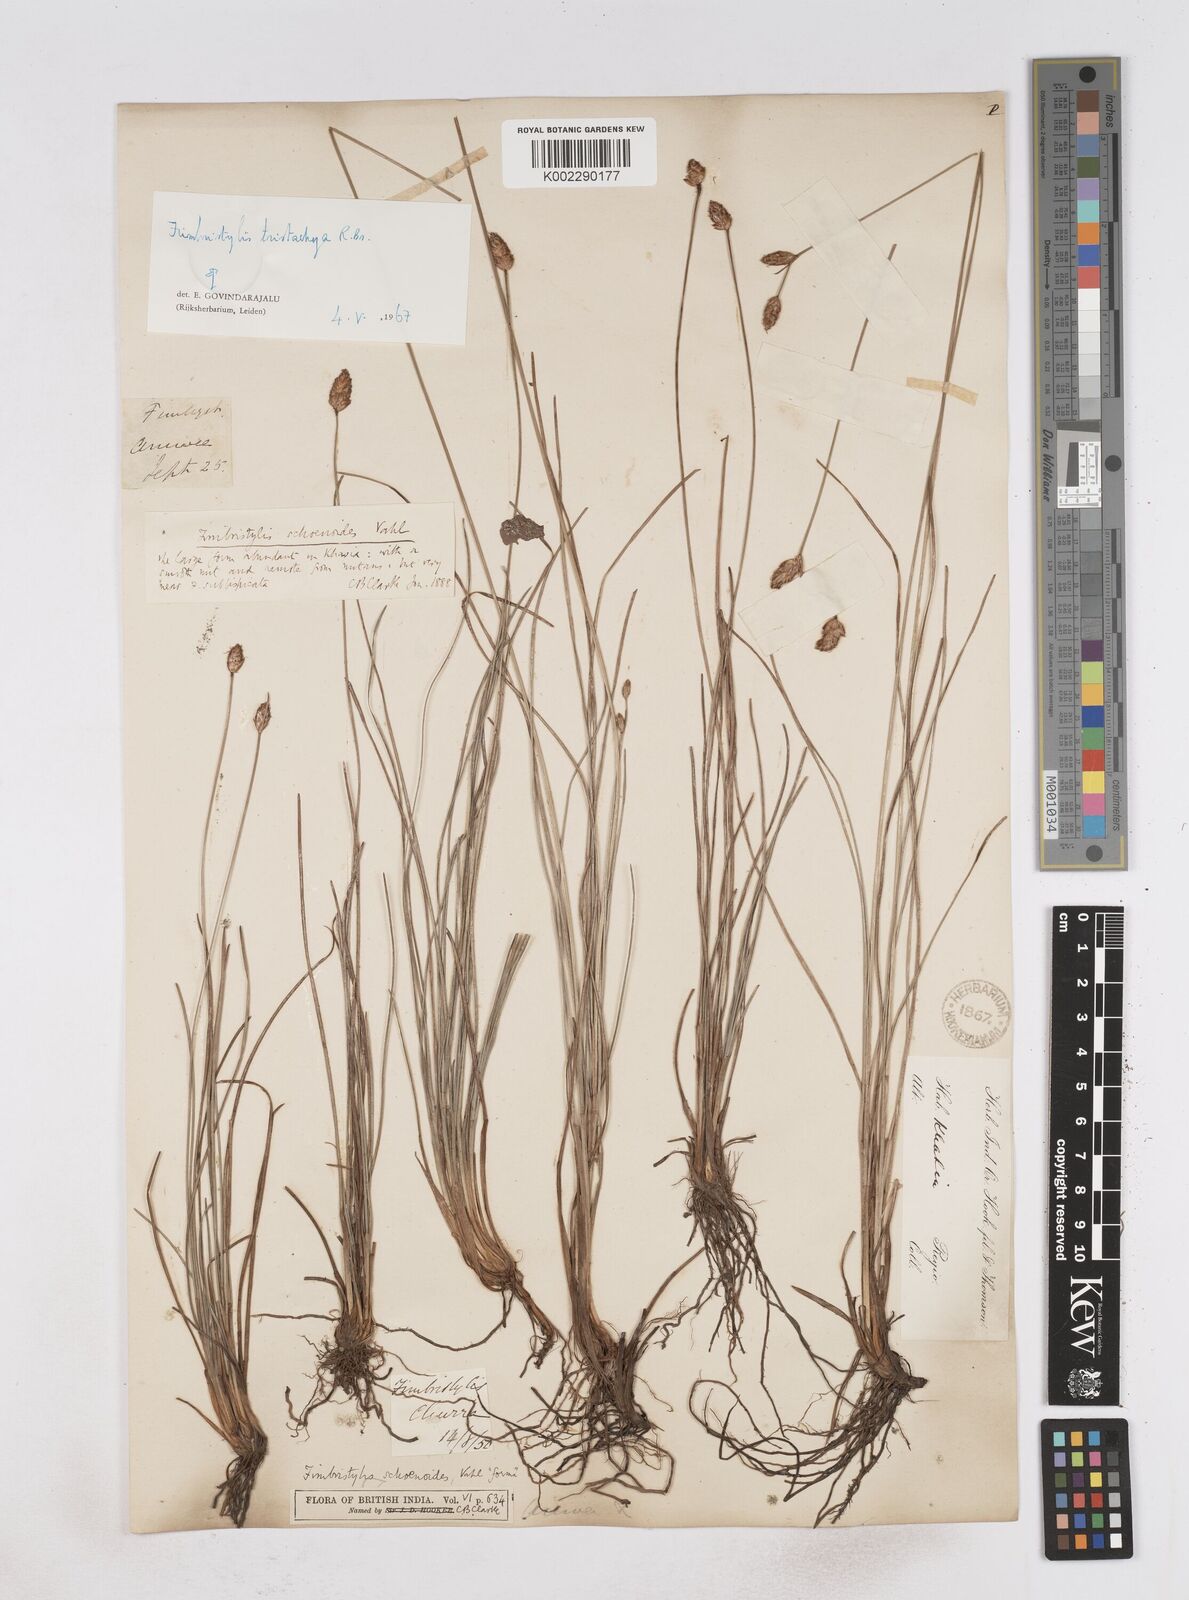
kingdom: Plantae
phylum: Tracheophyta
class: Liliopsida
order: Poales
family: Cyperaceae
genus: Fimbristylis
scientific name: Fimbristylis tristachya
